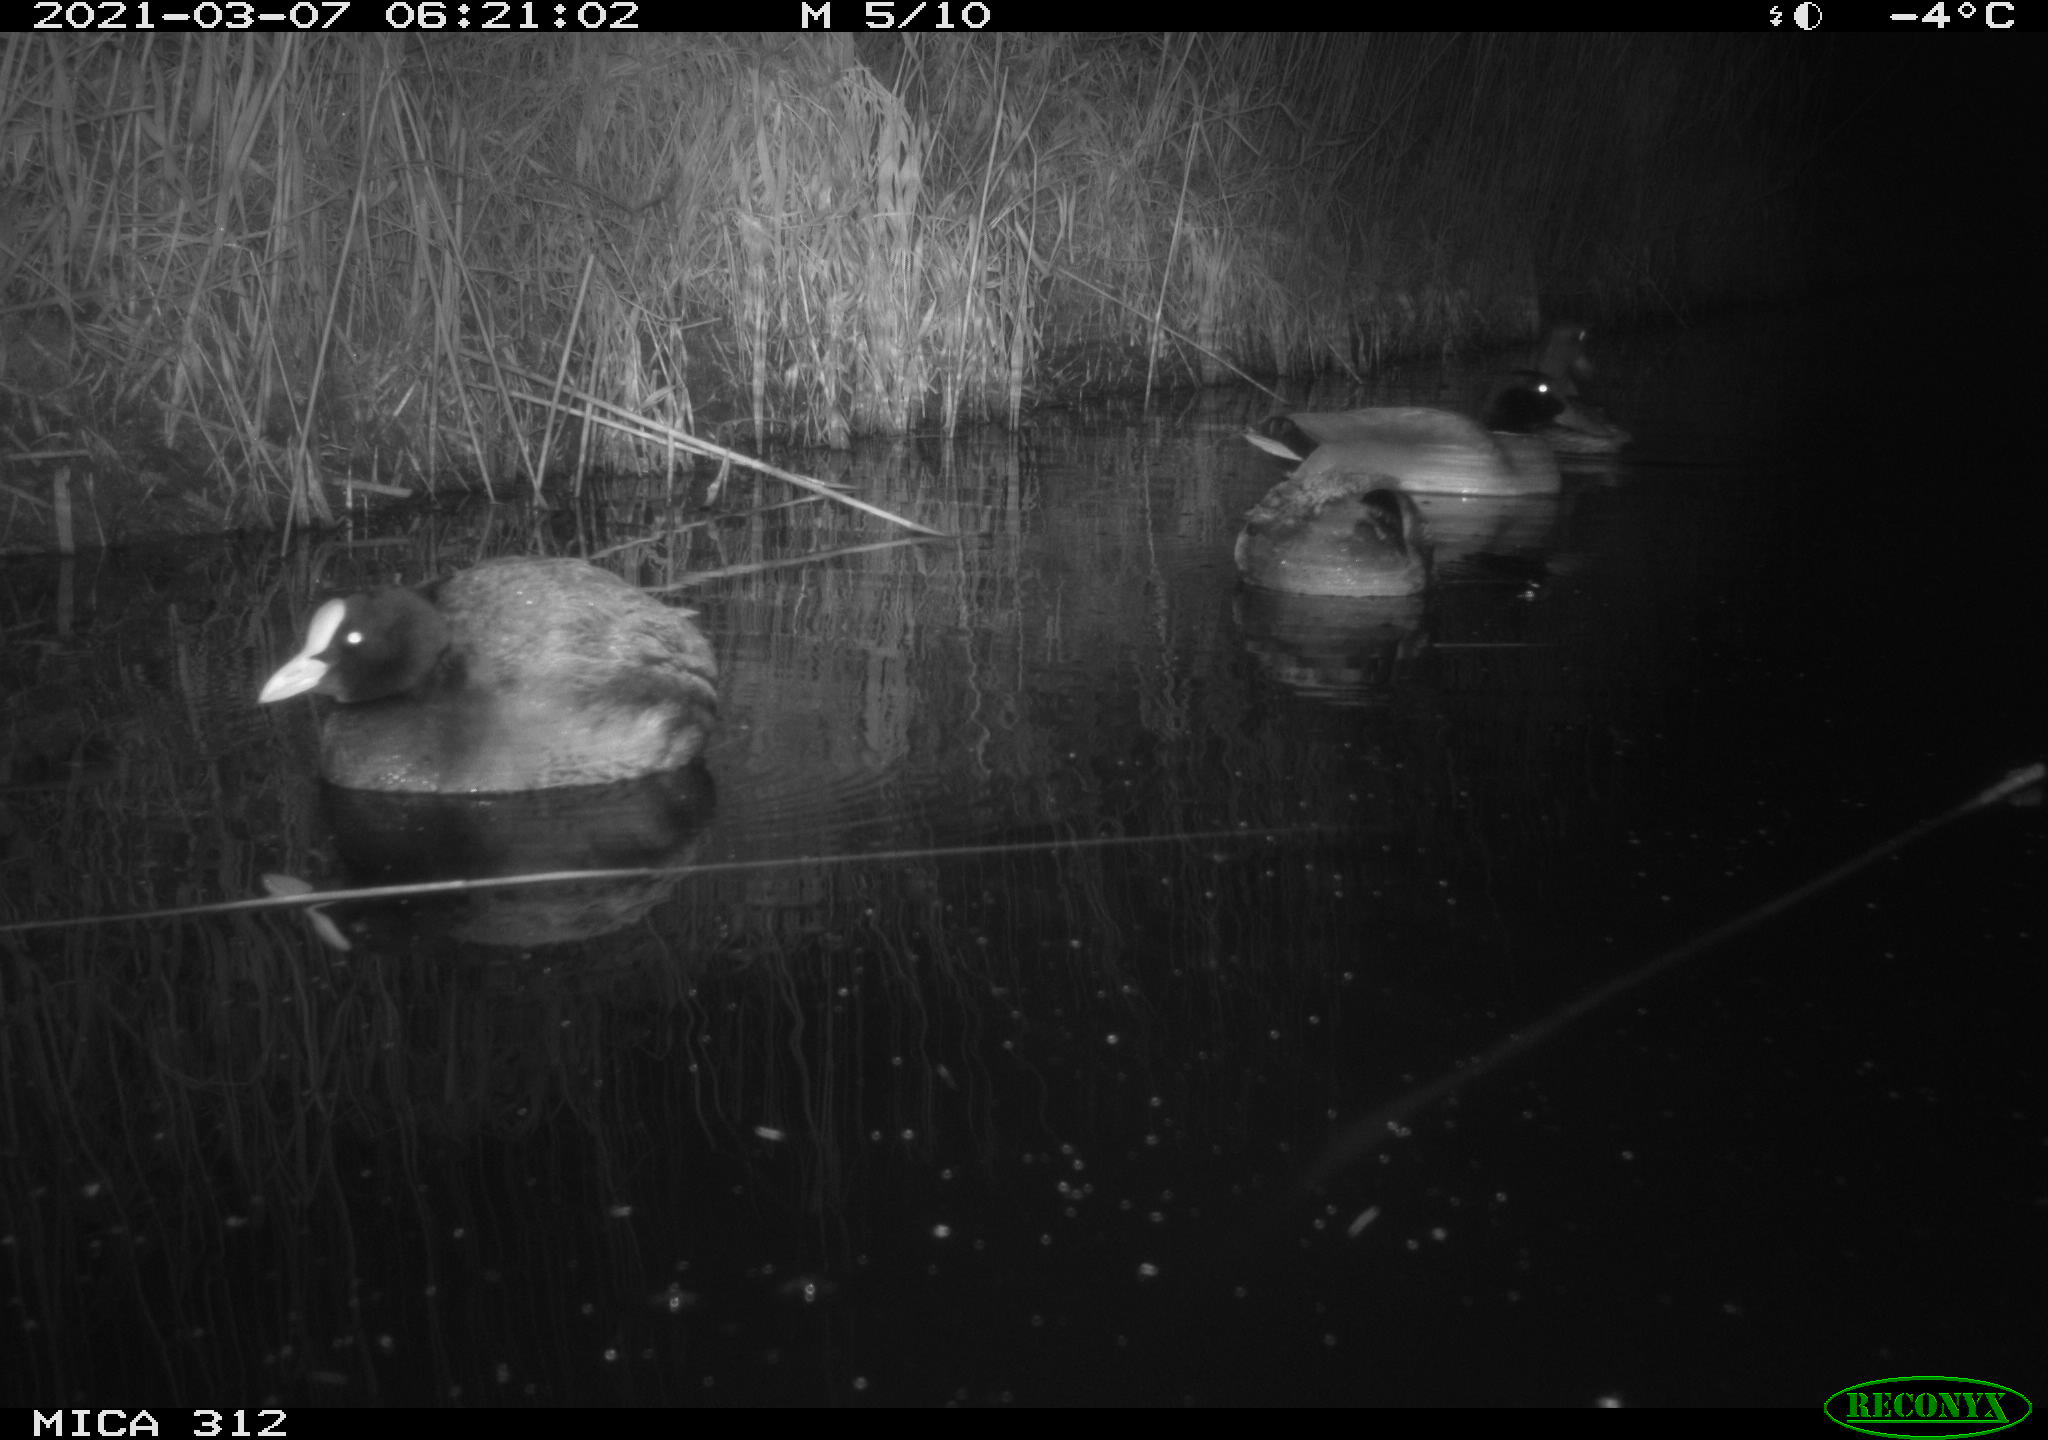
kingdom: Animalia
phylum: Chordata
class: Aves
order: Anseriformes
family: Anatidae
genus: Anas
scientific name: Anas platyrhynchos
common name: Mallard
